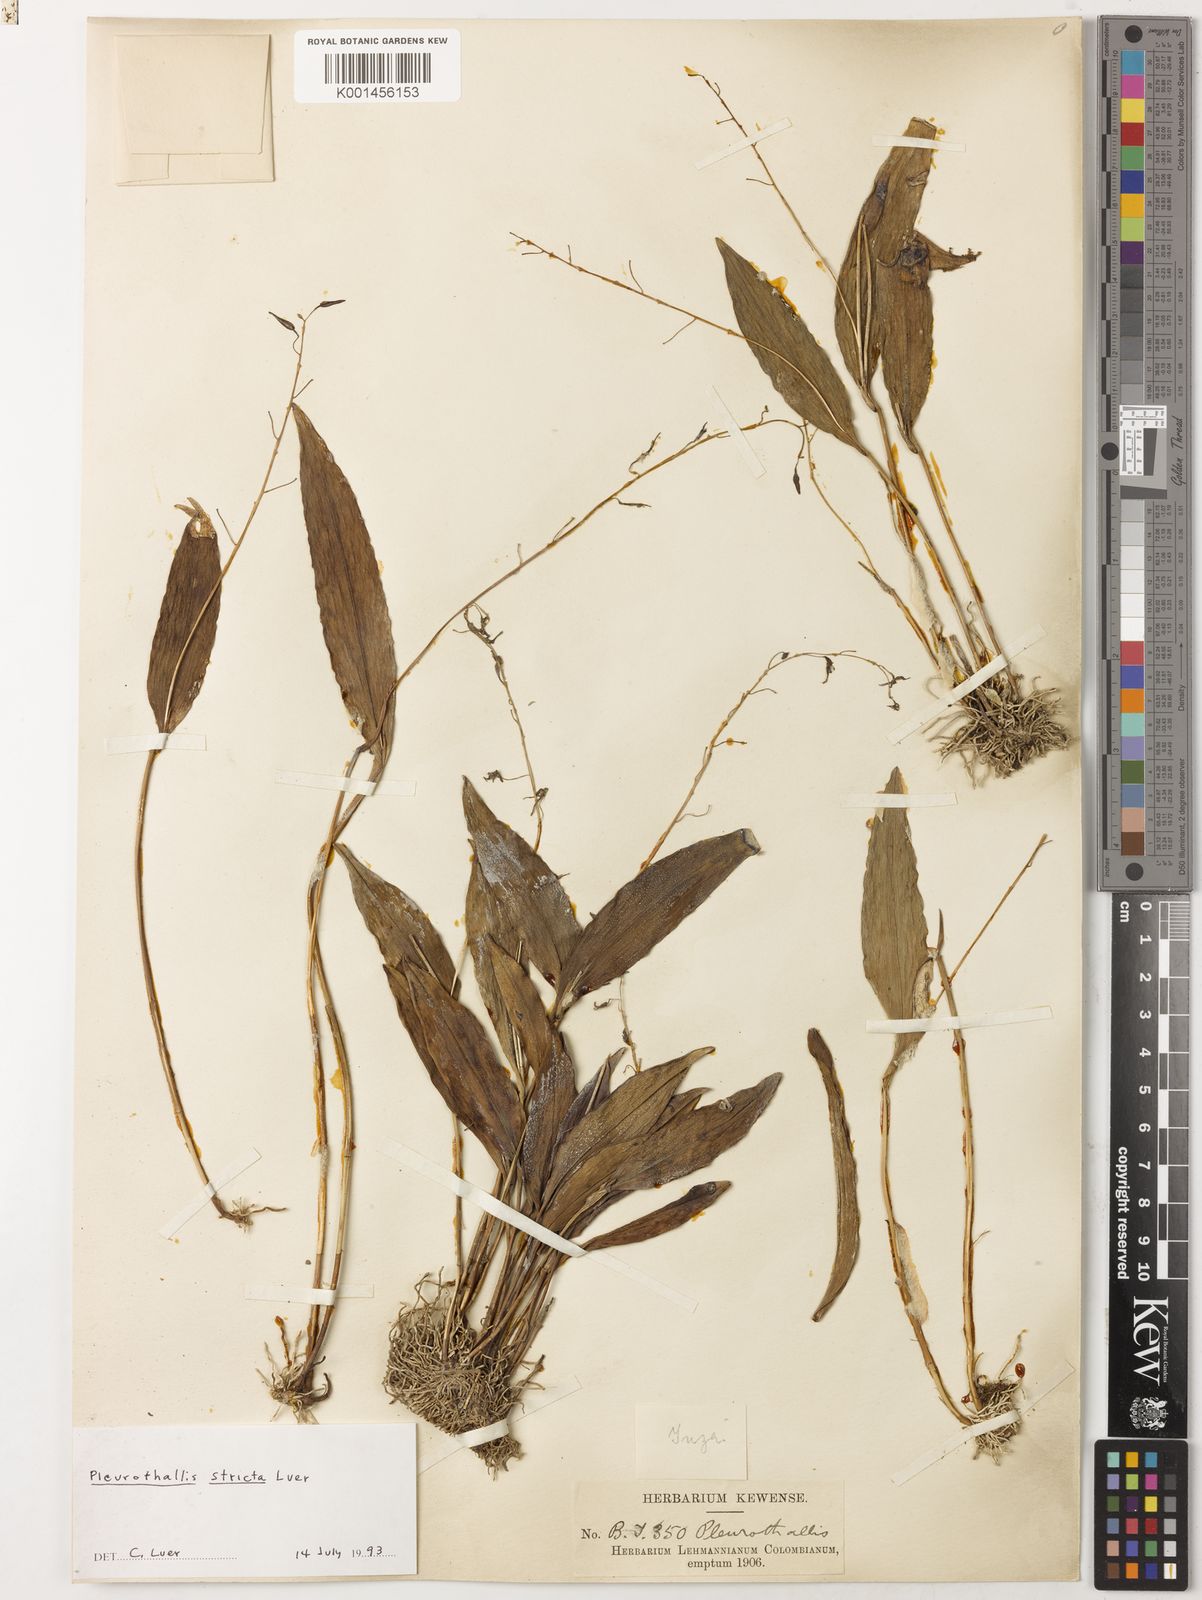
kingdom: Plantae
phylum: Tracheophyta
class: Liliopsida
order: Asparagales
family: Orchidaceae
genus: Pleurothallis
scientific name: Pleurothallis stricta
